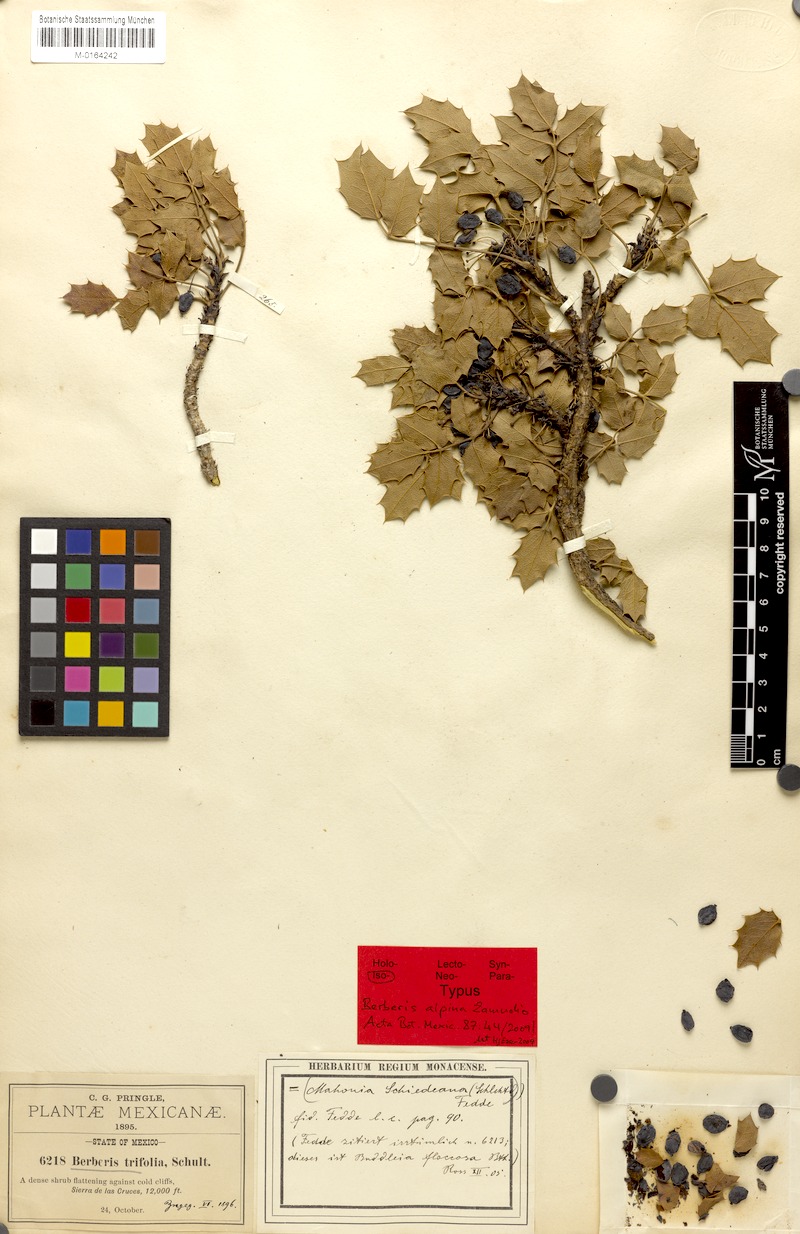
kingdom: Plantae
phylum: Tracheophyta
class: Magnoliopsida
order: Ranunculales
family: Berberidaceae
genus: Mahonia
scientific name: Mahonia alpina
